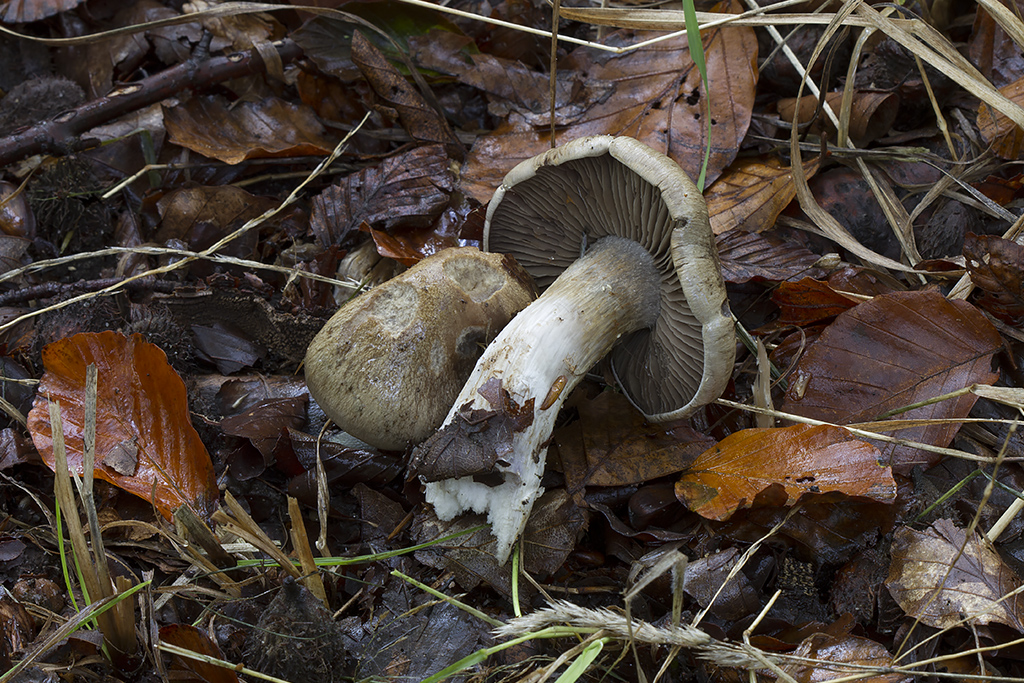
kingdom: Fungi
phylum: Basidiomycota
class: Agaricomycetes
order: Agaricales
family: Cortinariaceae
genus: Cortinarius
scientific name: Cortinarius
